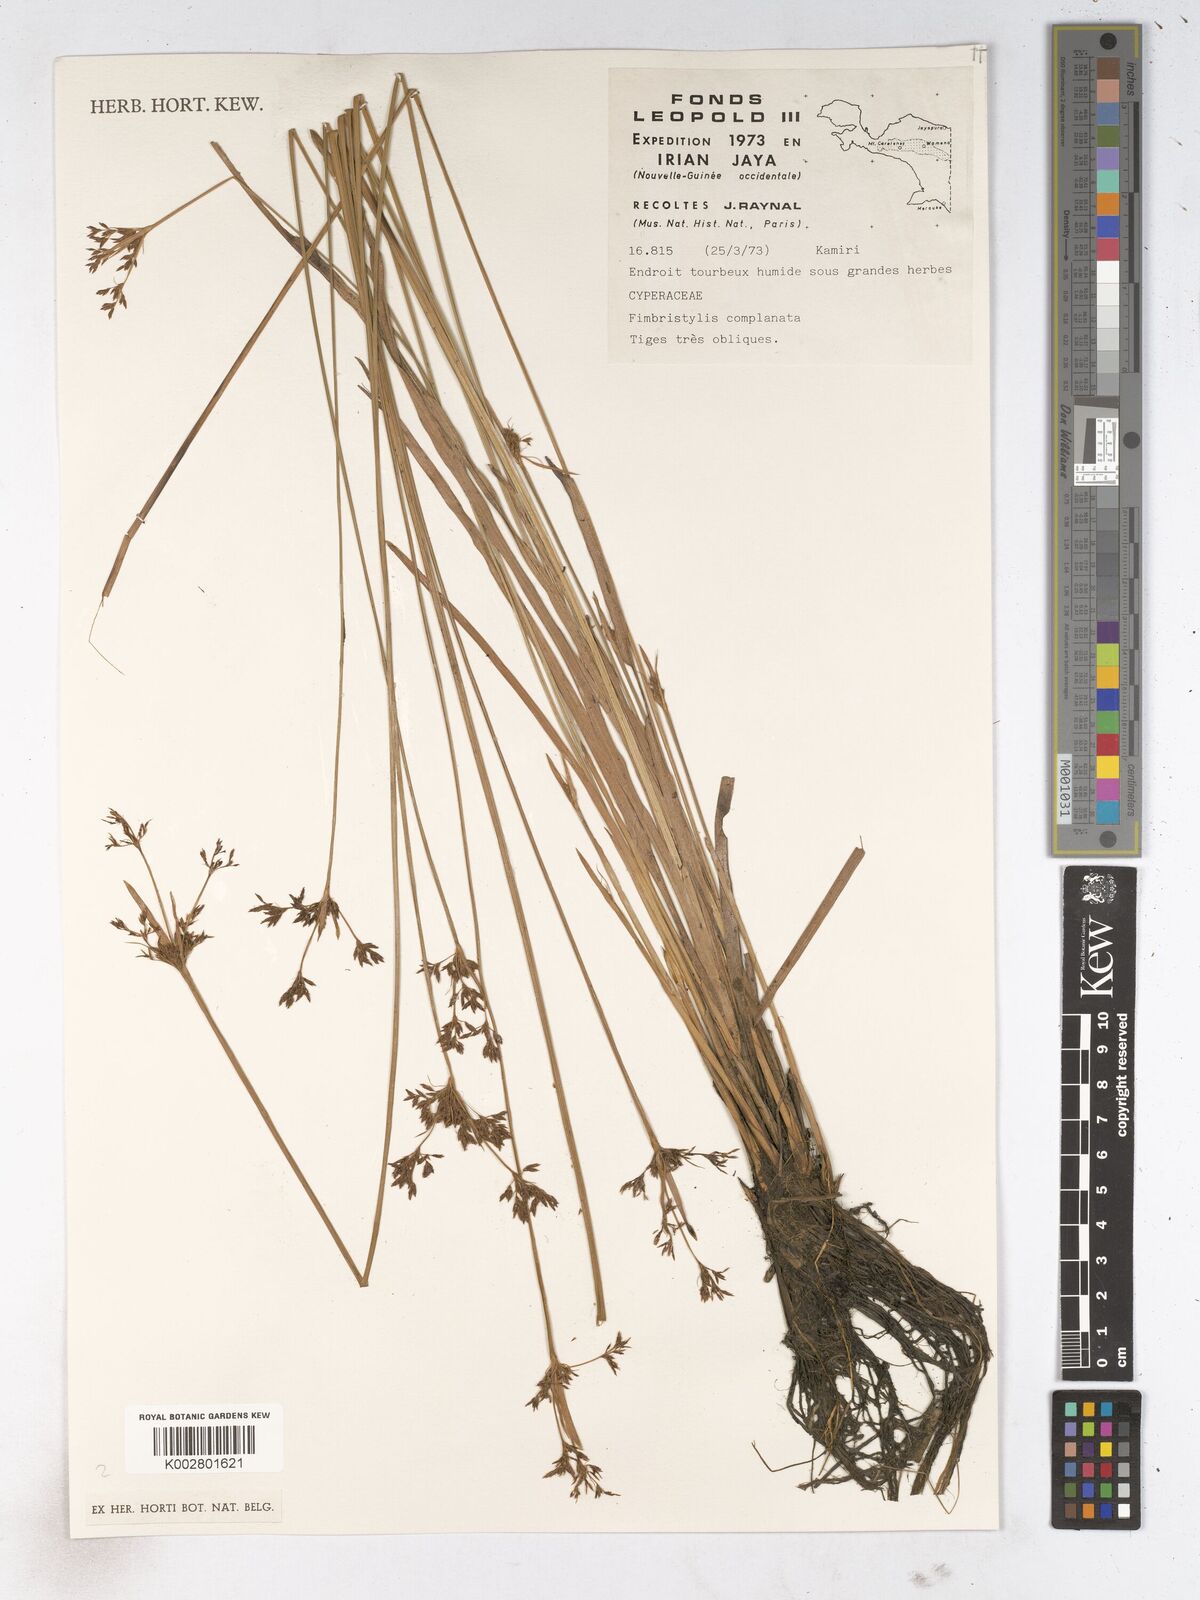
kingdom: Plantae
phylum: Tracheophyta
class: Liliopsida
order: Poales
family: Cyperaceae
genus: Fimbristylis
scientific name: Fimbristylis complanata
